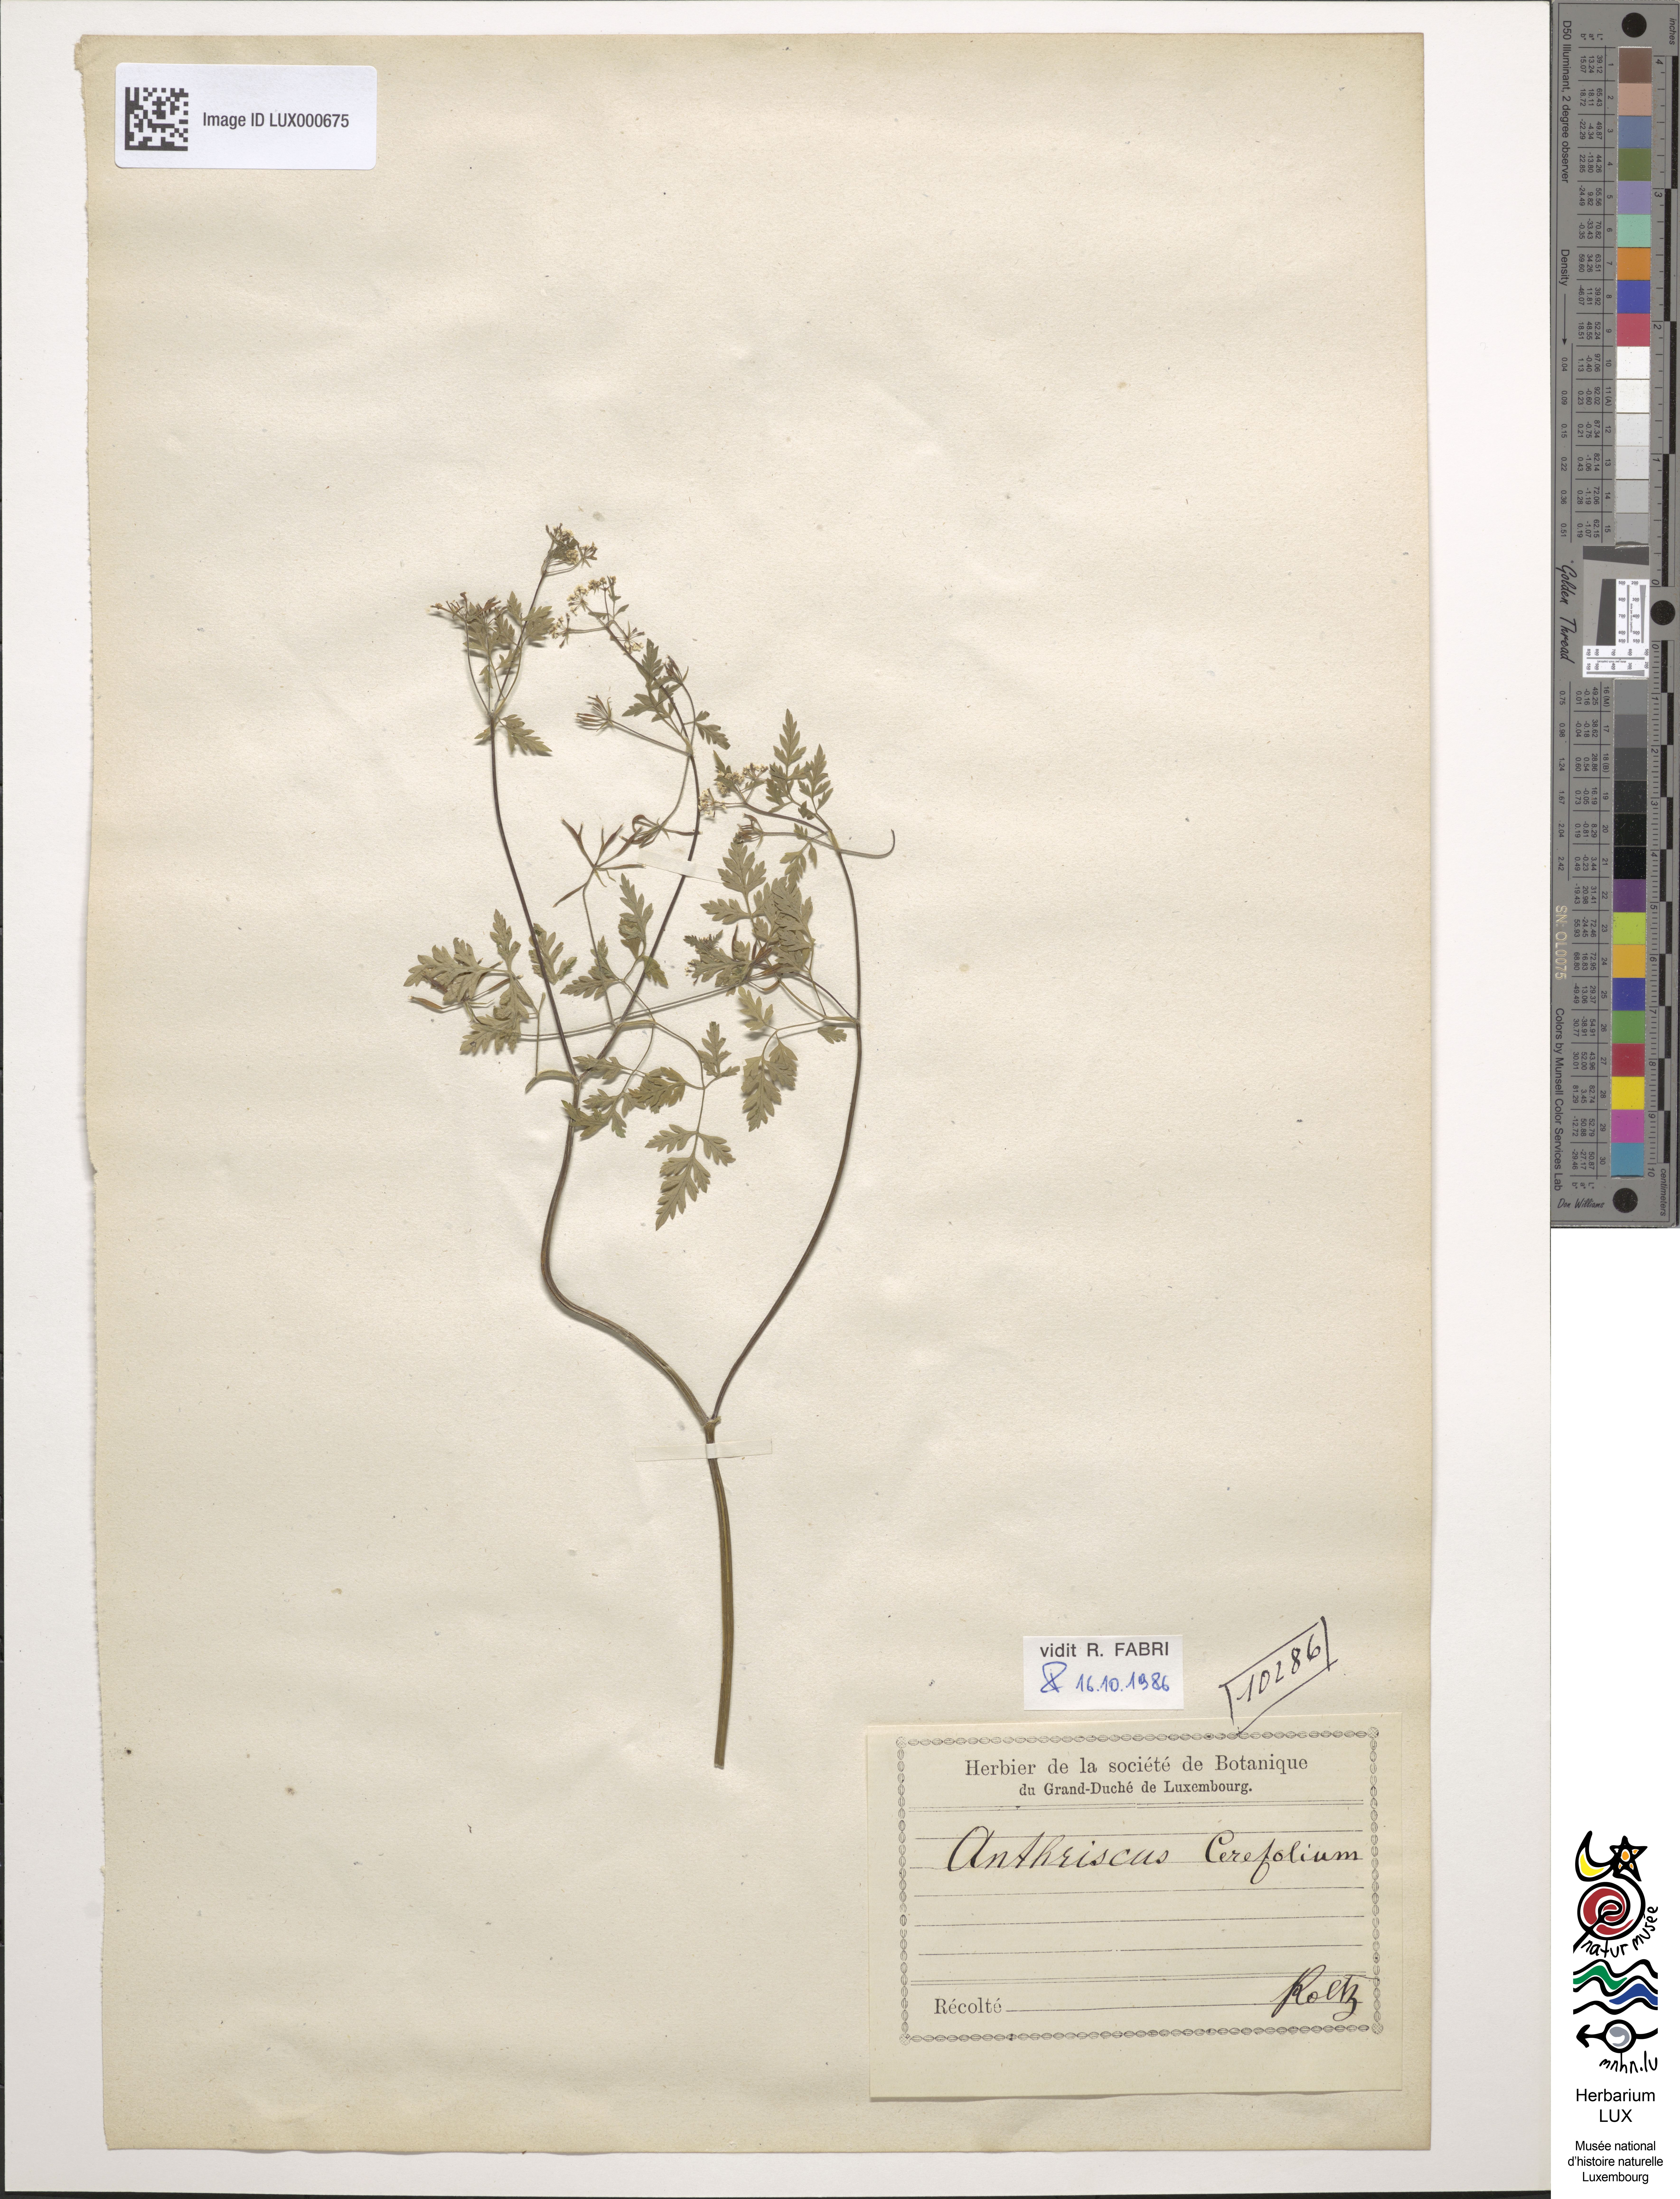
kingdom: Plantae
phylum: Tracheophyta
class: Magnoliopsida
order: Apiales
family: Apiaceae
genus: Anthriscus
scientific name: Anthriscus cerefolium
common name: Garden chervil
